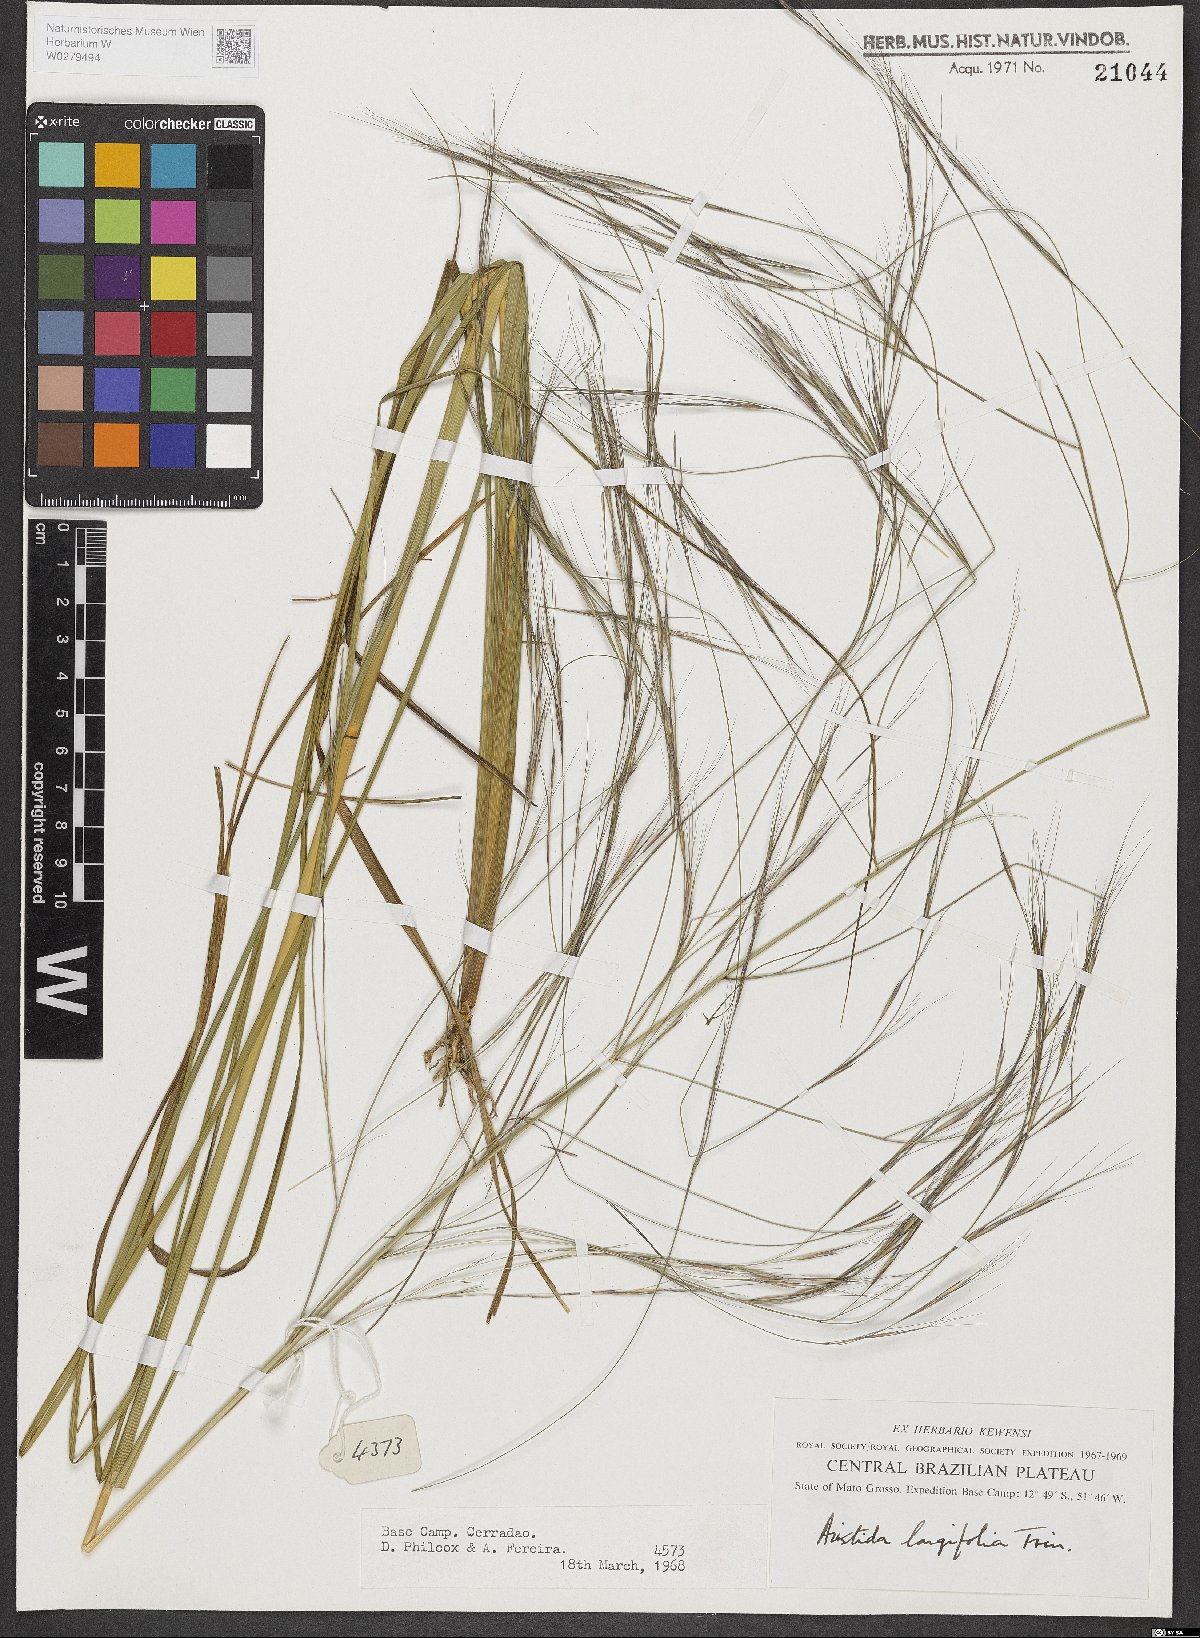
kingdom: Plantae
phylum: Tracheophyta
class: Liliopsida
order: Poales
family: Poaceae
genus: Aristida
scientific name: Aristida longifolia
